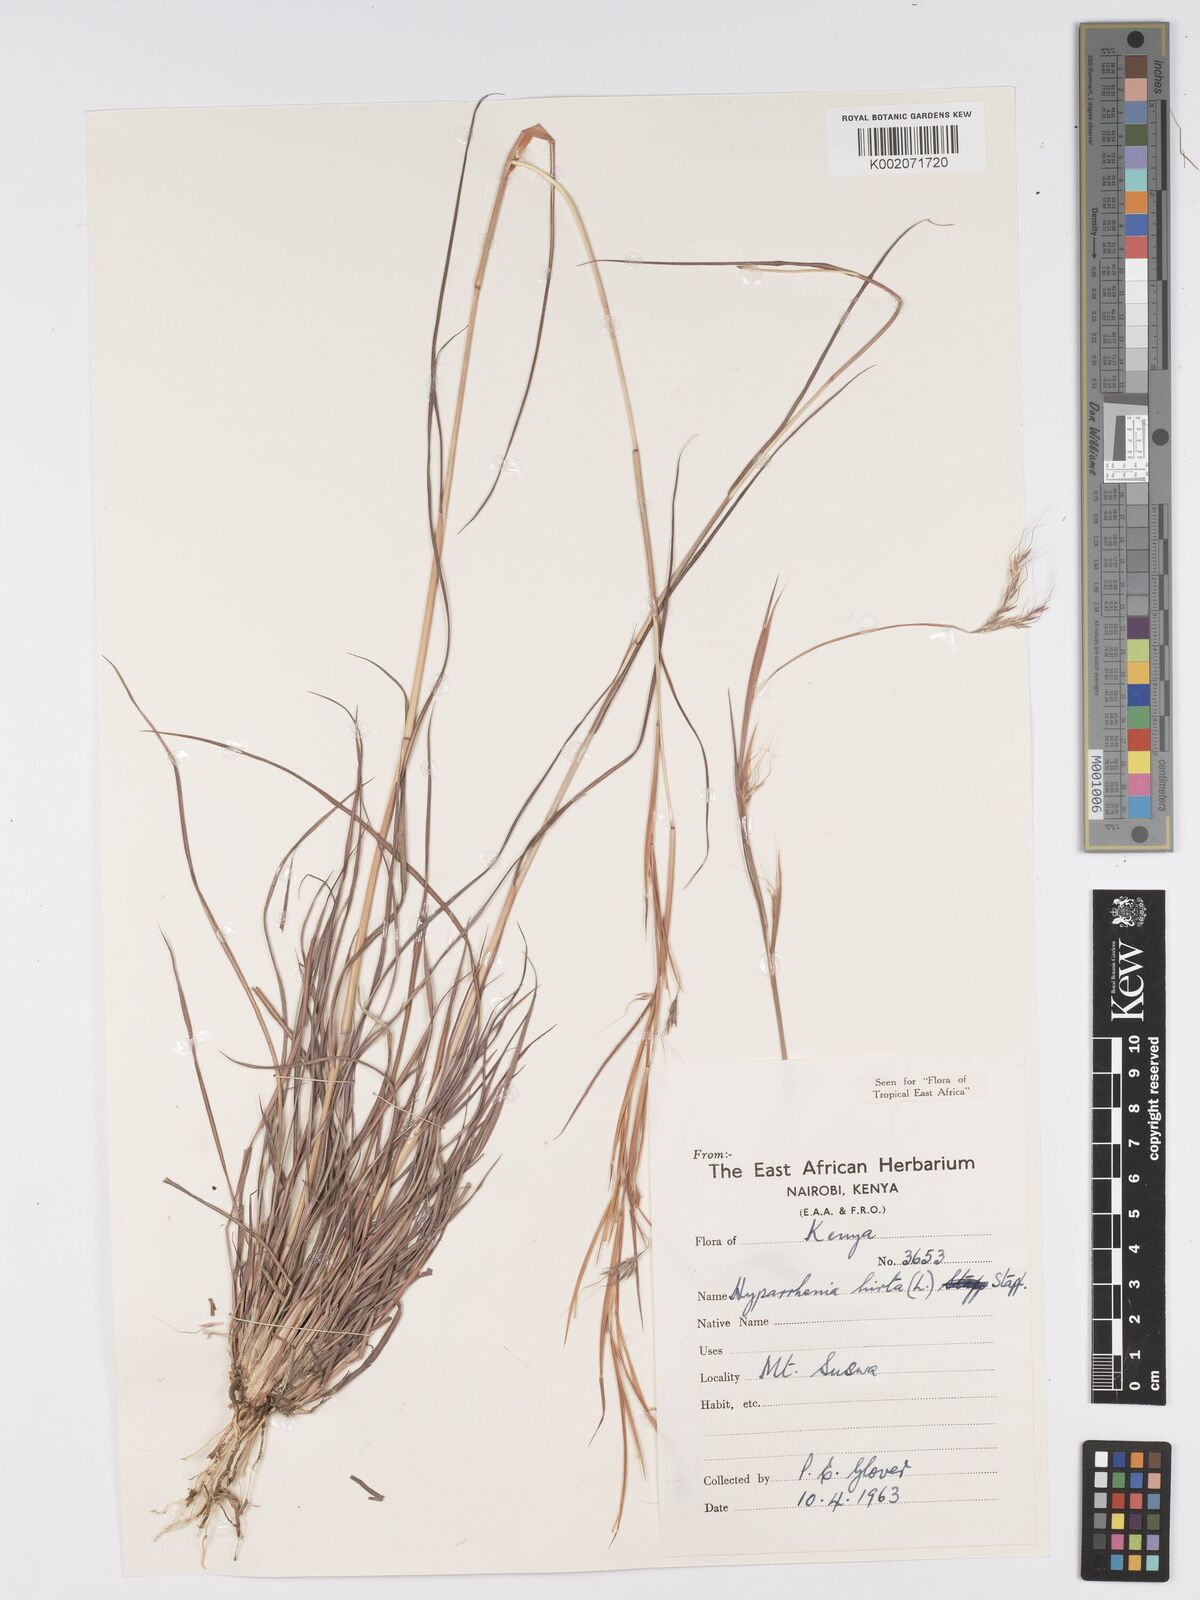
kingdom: Plantae
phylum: Tracheophyta
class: Liliopsida
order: Poales
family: Poaceae
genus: Hyparrhenia
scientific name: Hyparrhenia hirta
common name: Thatching grass
